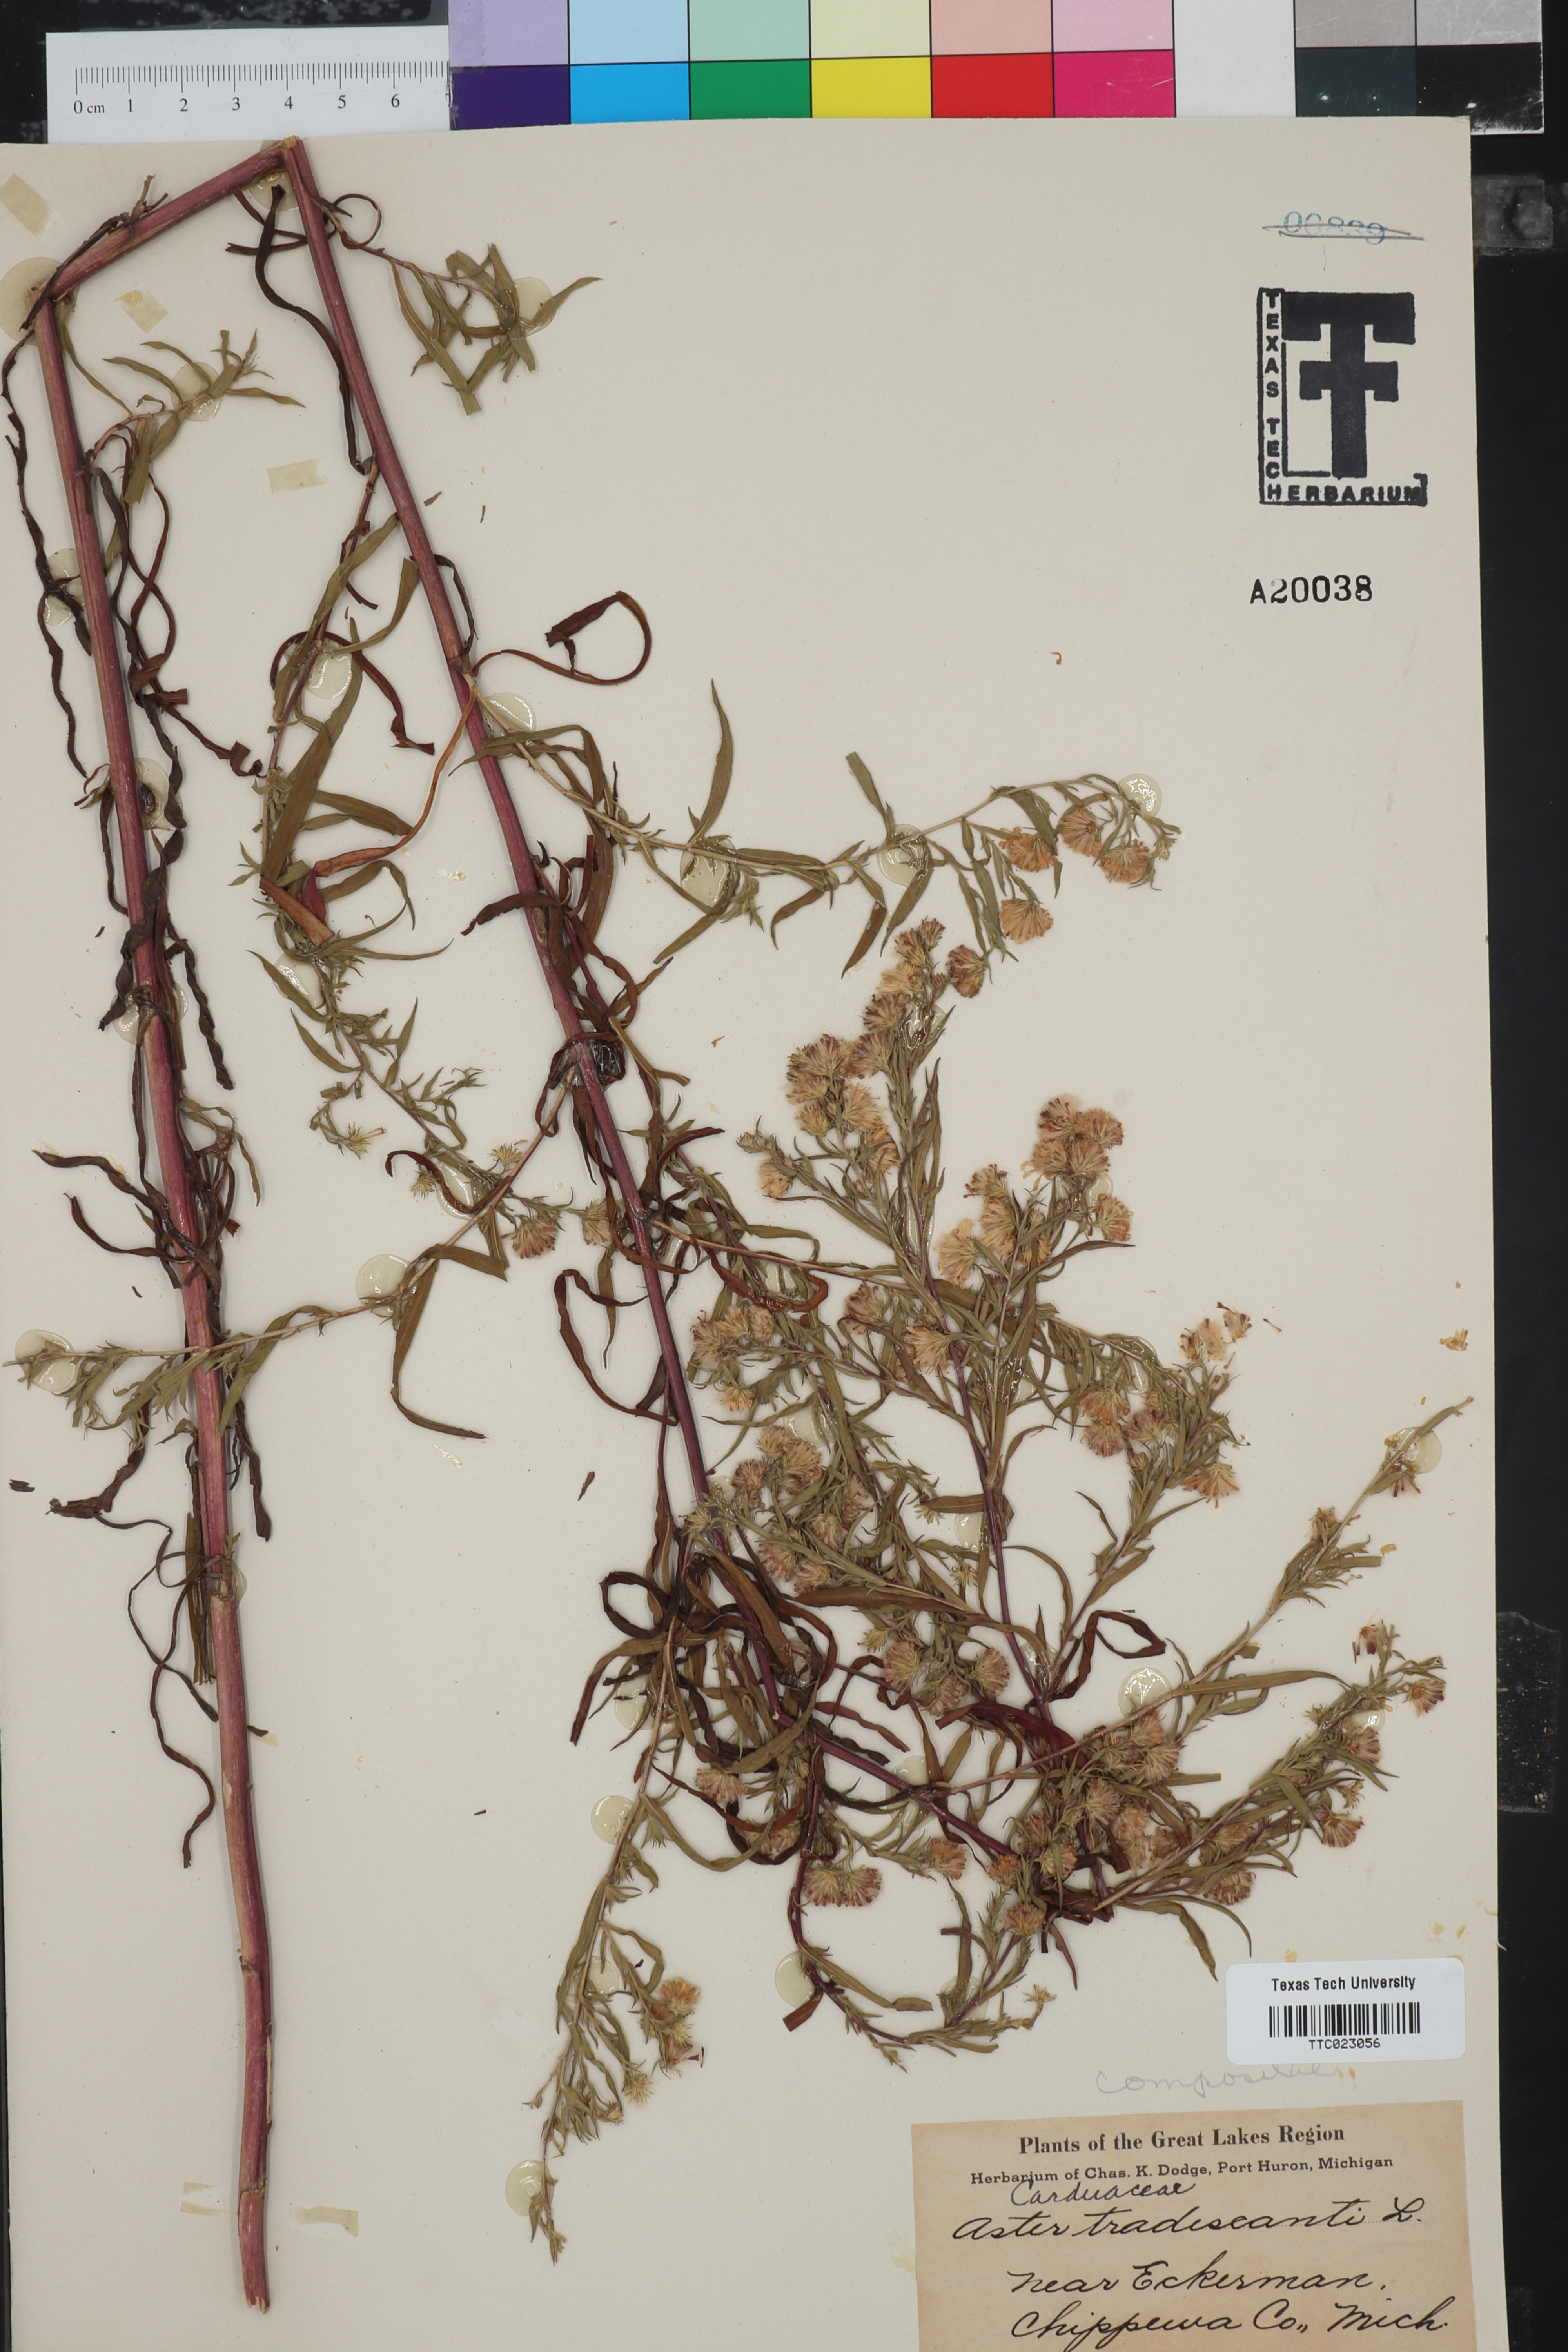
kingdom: Plantae
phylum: Tracheophyta
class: Magnoliopsida
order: Asterales
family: Asteraceae
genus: Symphyotrichum
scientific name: Symphyotrichum lateriflorum
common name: Calico aster
